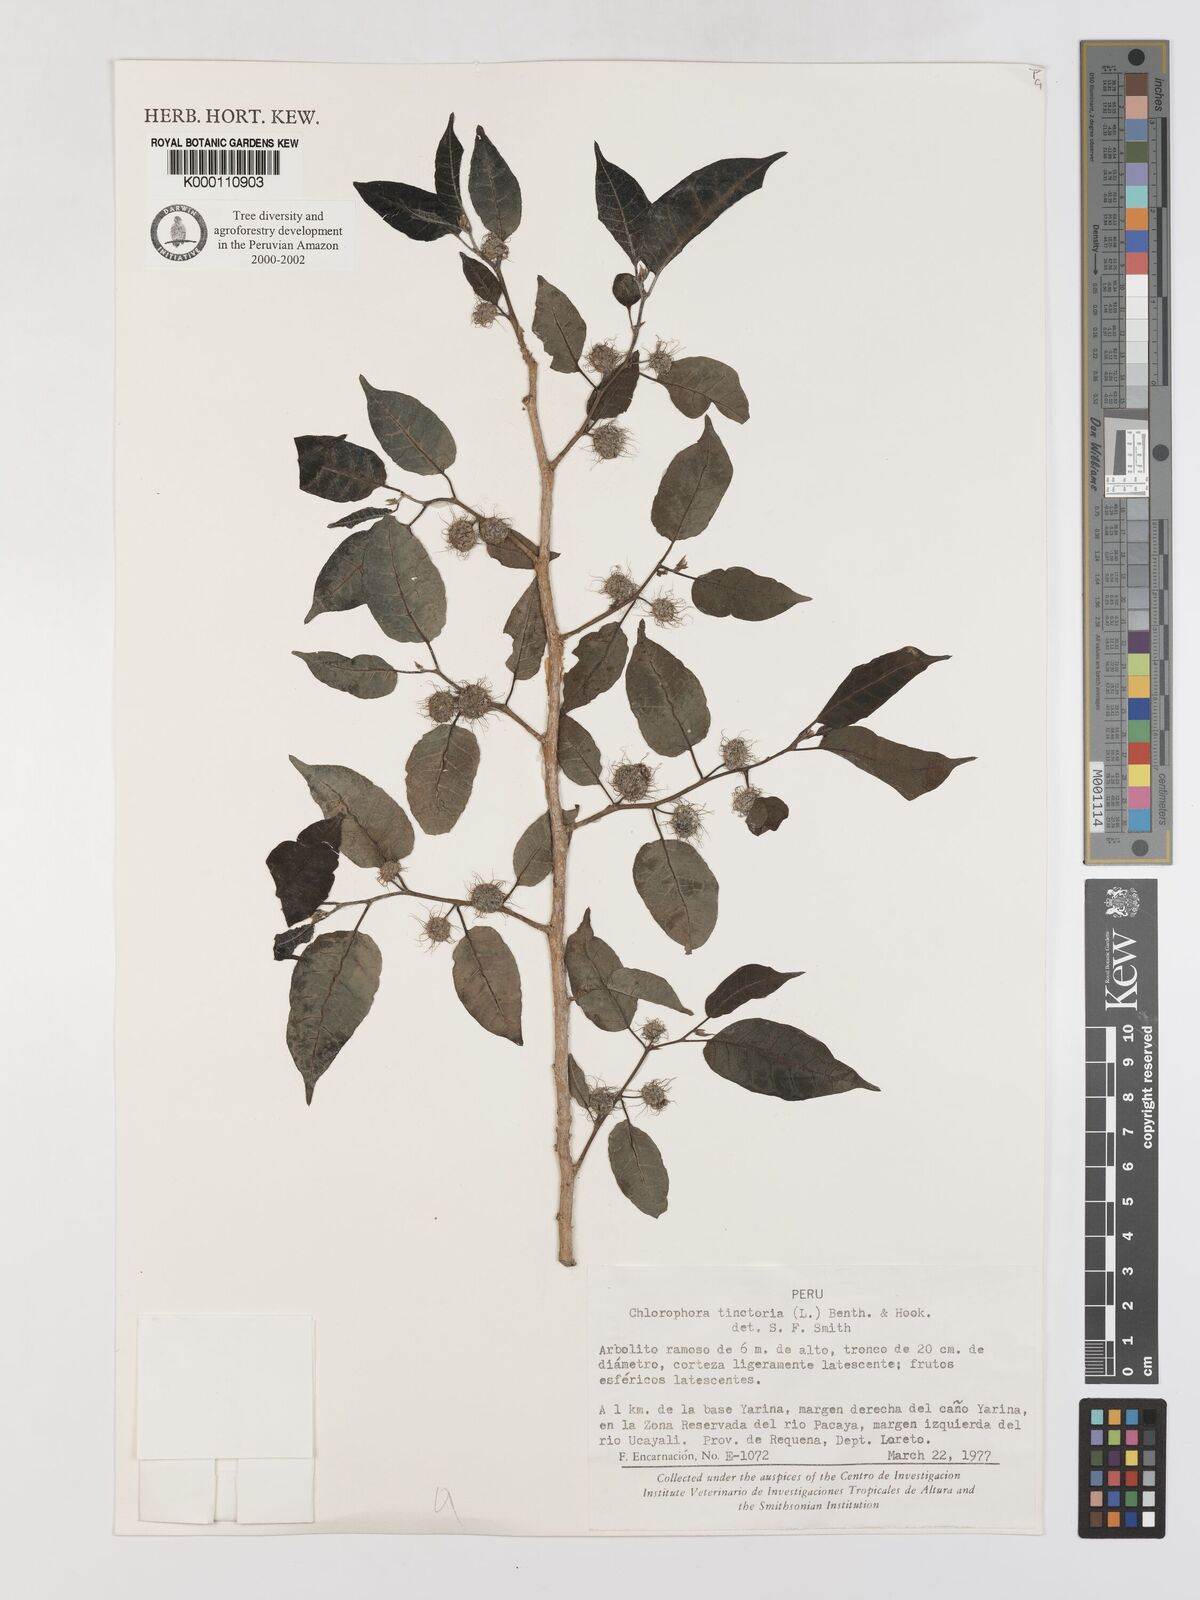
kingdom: Plantae
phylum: Tracheophyta
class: Magnoliopsida
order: Rosales
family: Moraceae
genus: Maclura
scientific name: Maclura tinctoria
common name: Old fustic
